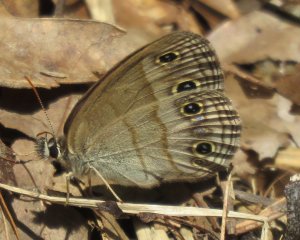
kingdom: Animalia
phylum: Arthropoda
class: Insecta
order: Lepidoptera
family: Nymphalidae
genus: Hermeuptychia
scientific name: Hermeuptychia hermes
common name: Carolina Satyr
